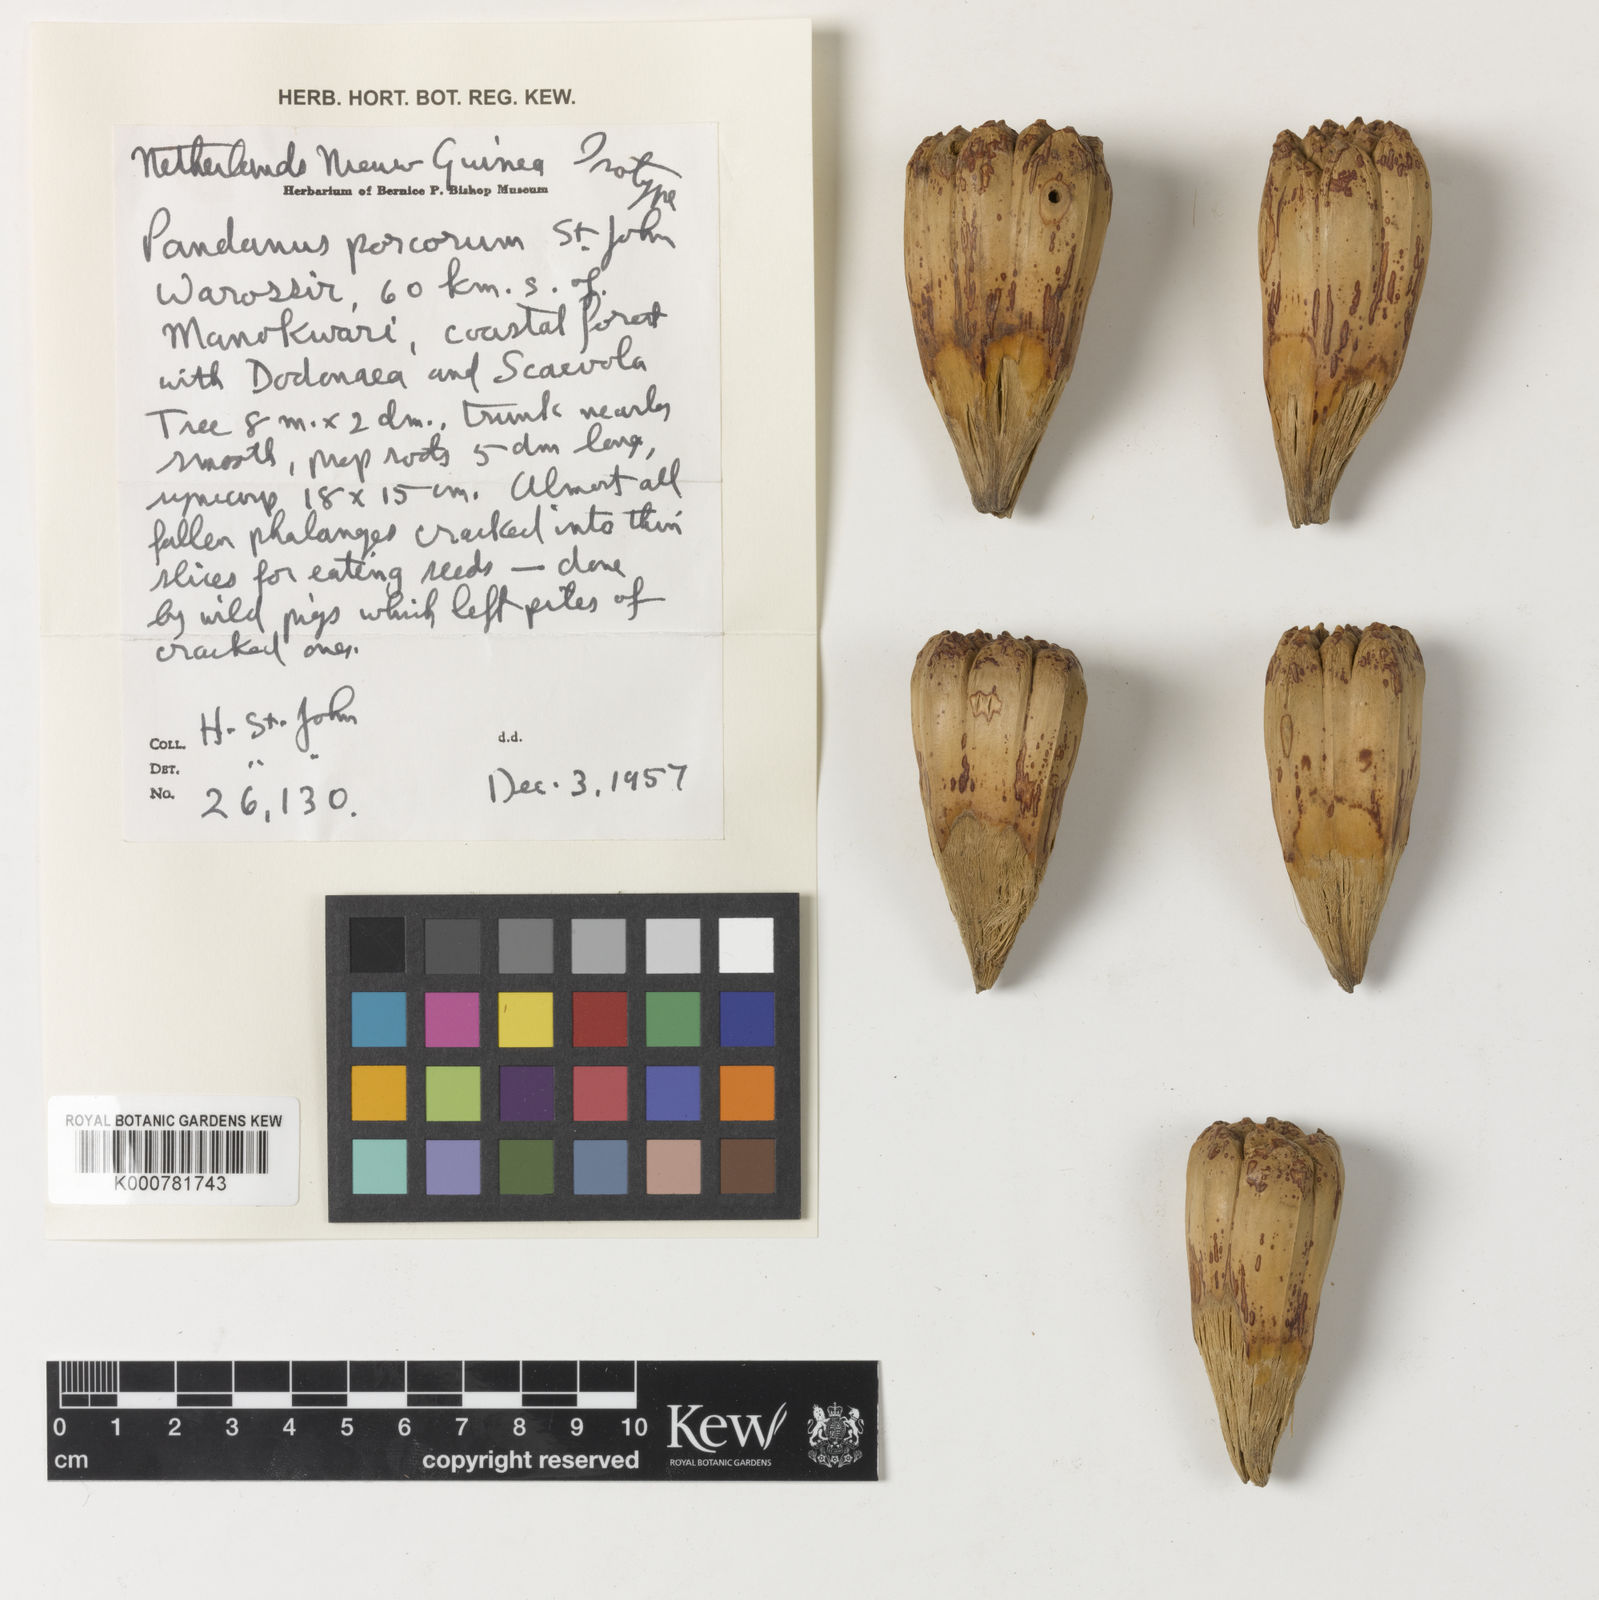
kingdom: Plantae
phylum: Tracheophyta
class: Liliopsida
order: Pandanales
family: Pandanaceae
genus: Pandanus
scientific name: Pandanus
